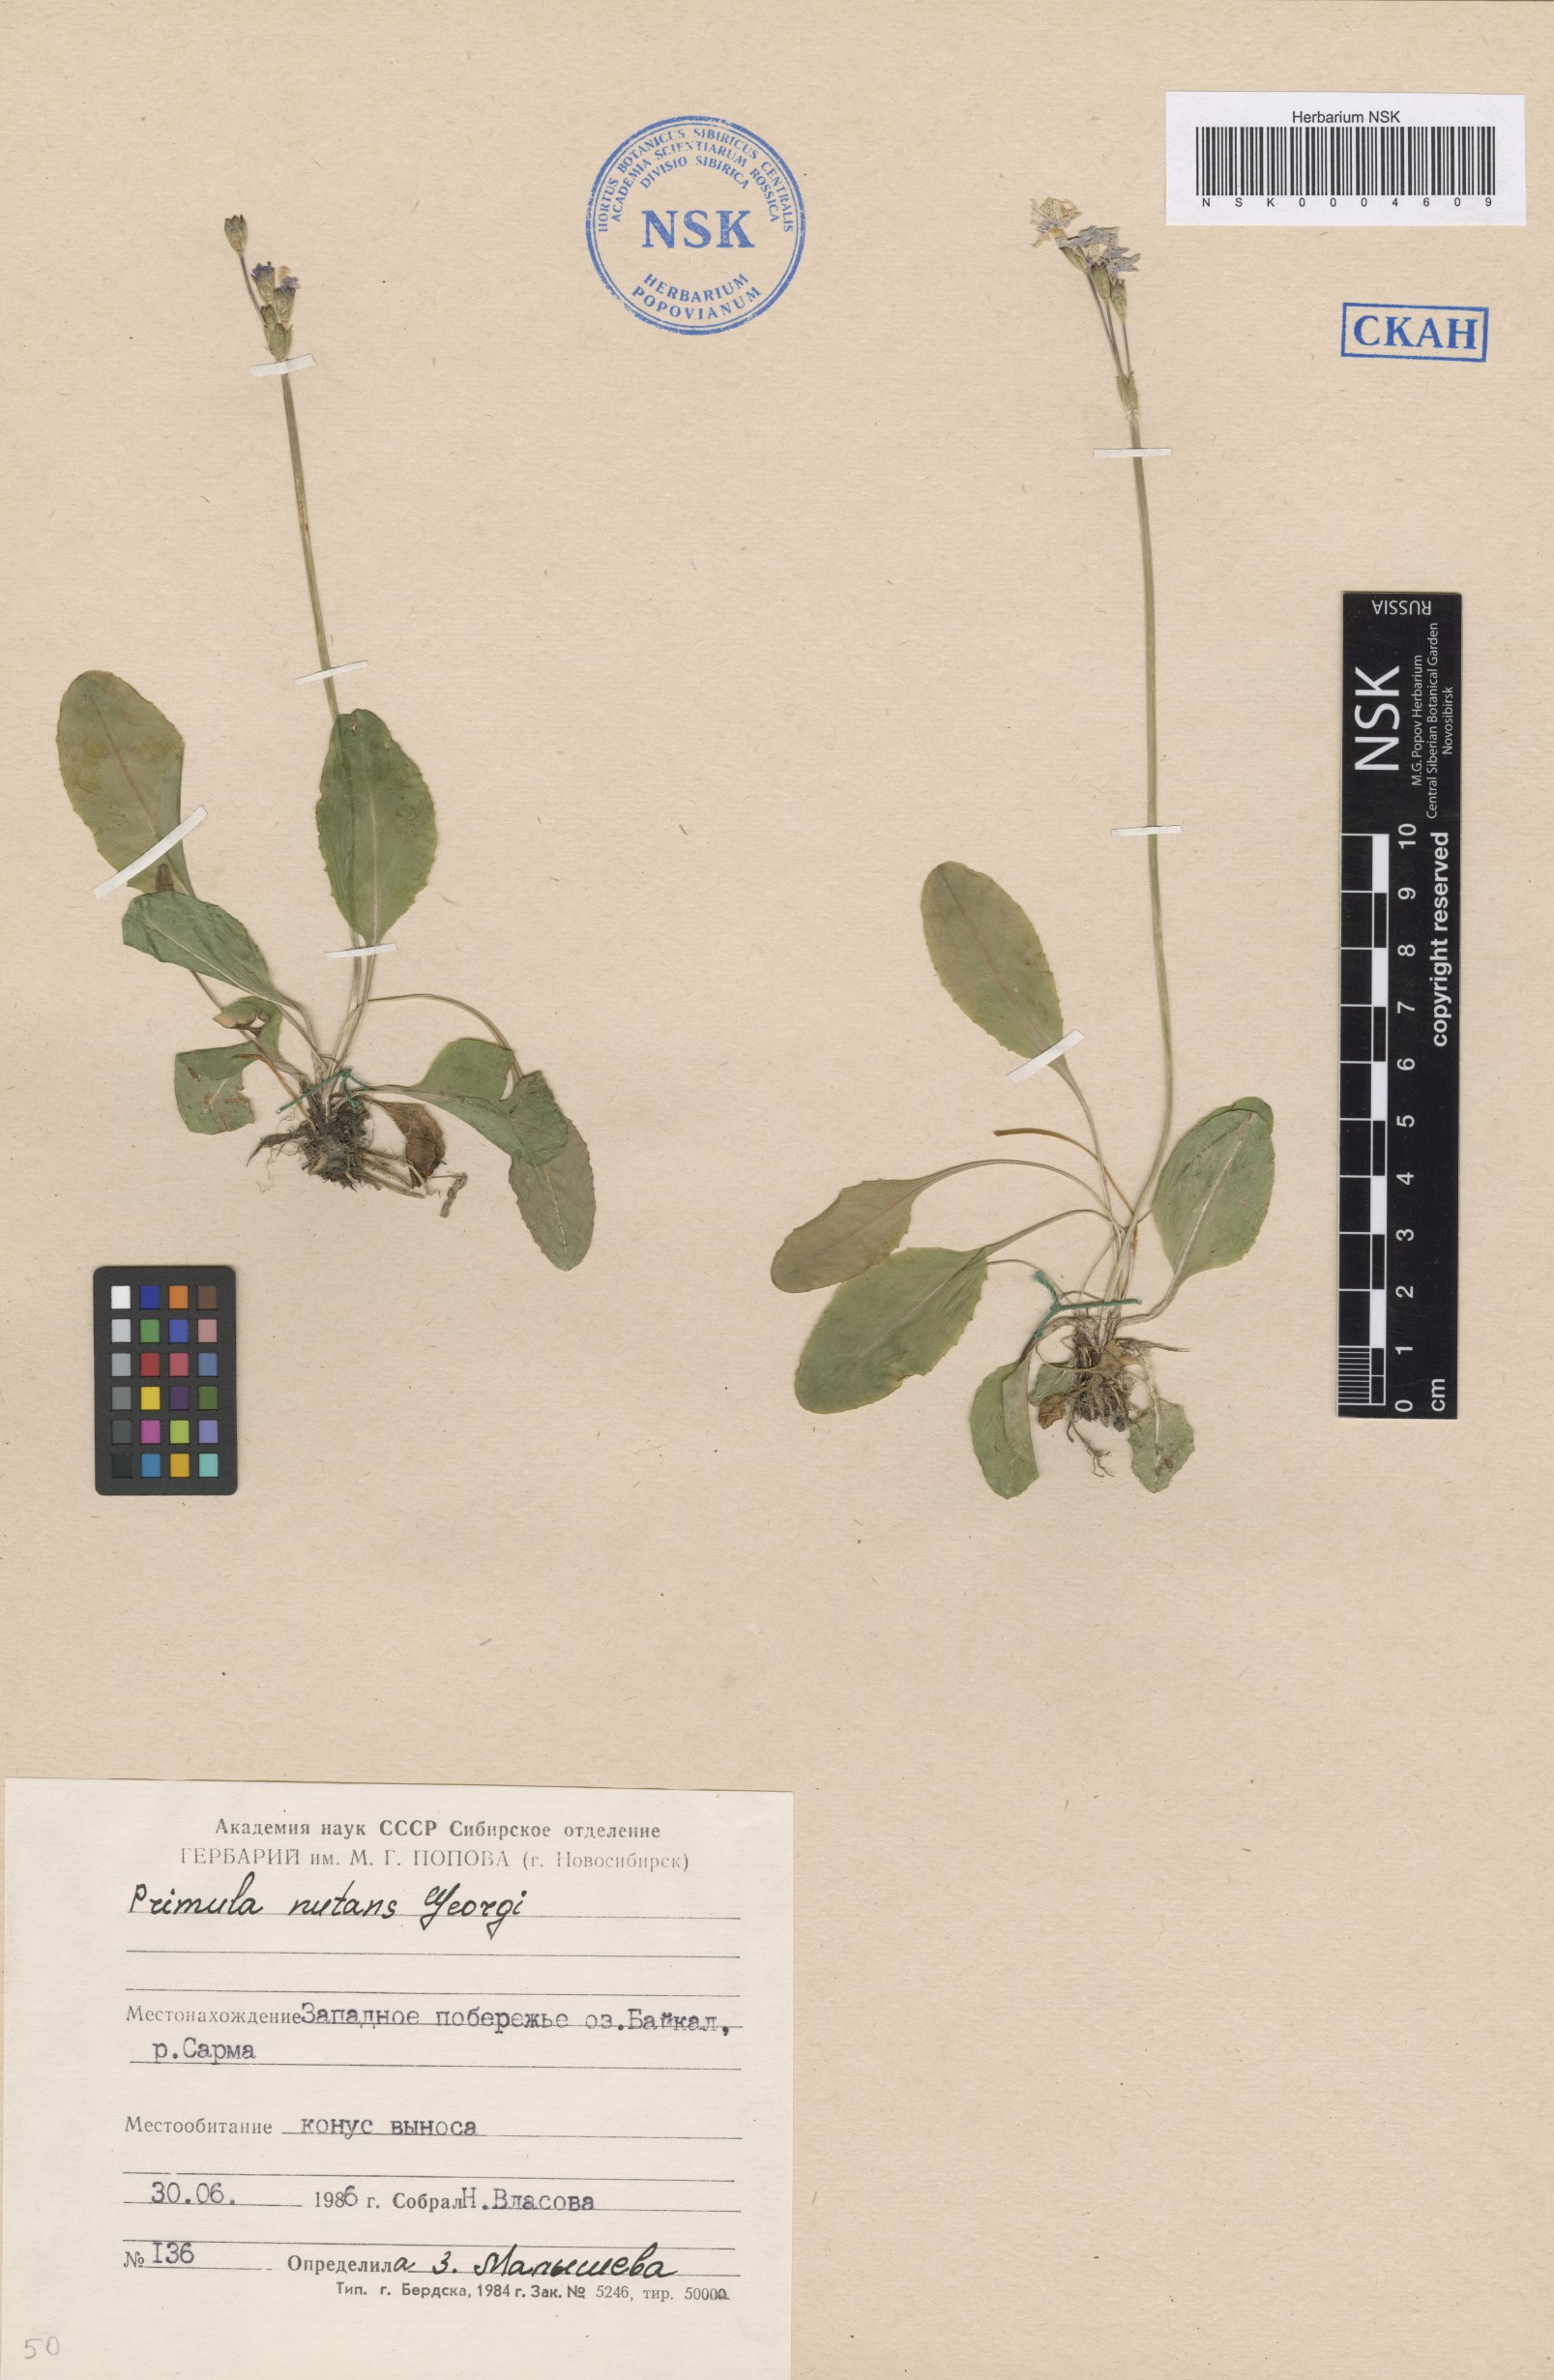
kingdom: Plantae
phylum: Tracheophyta
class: Magnoliopsida
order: Ericales
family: Primulaceae
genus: Primula
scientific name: Primula nutans
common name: Siberian primrose
